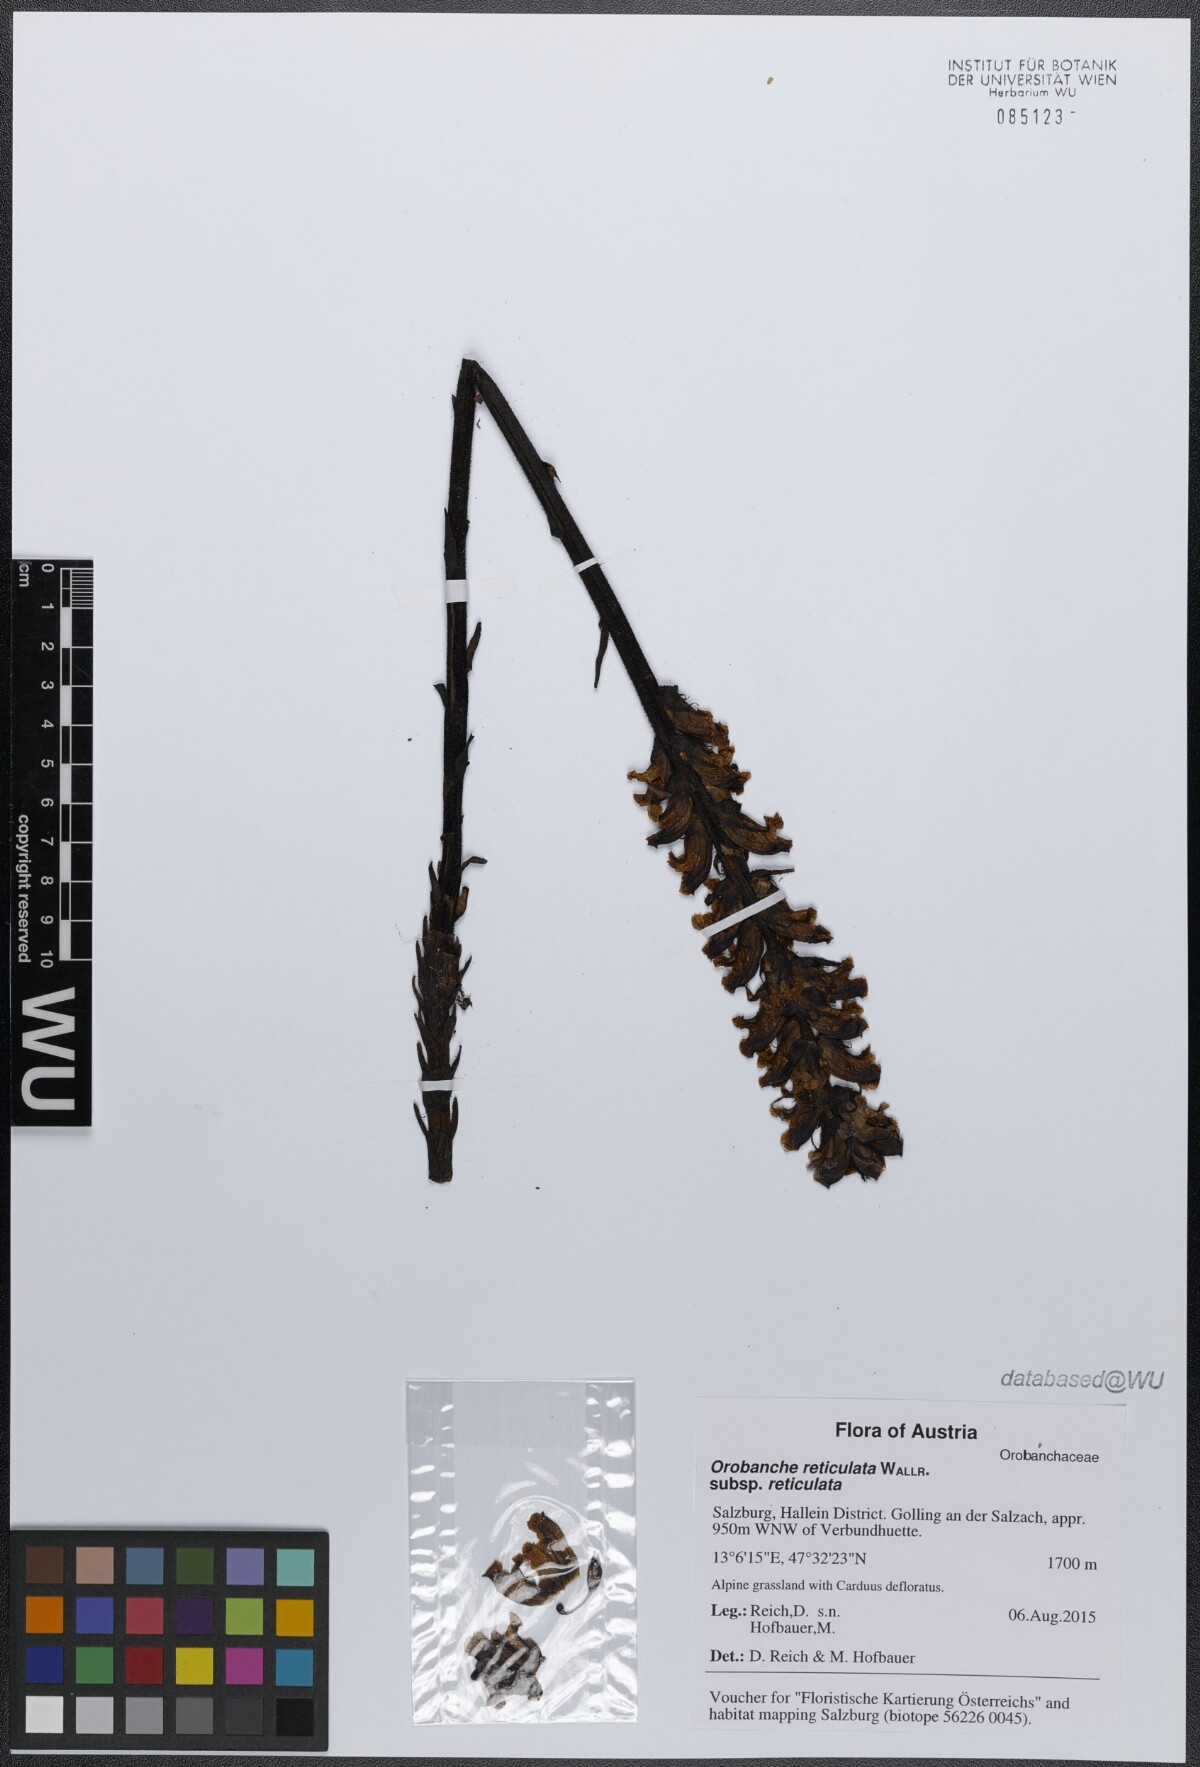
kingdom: Plantae
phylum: Tracheophyta
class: Magnoliopsida
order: Lamiales
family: Orobanchaceae
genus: Orobanche
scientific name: Orobanche reticulata
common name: Thistle broomrape
